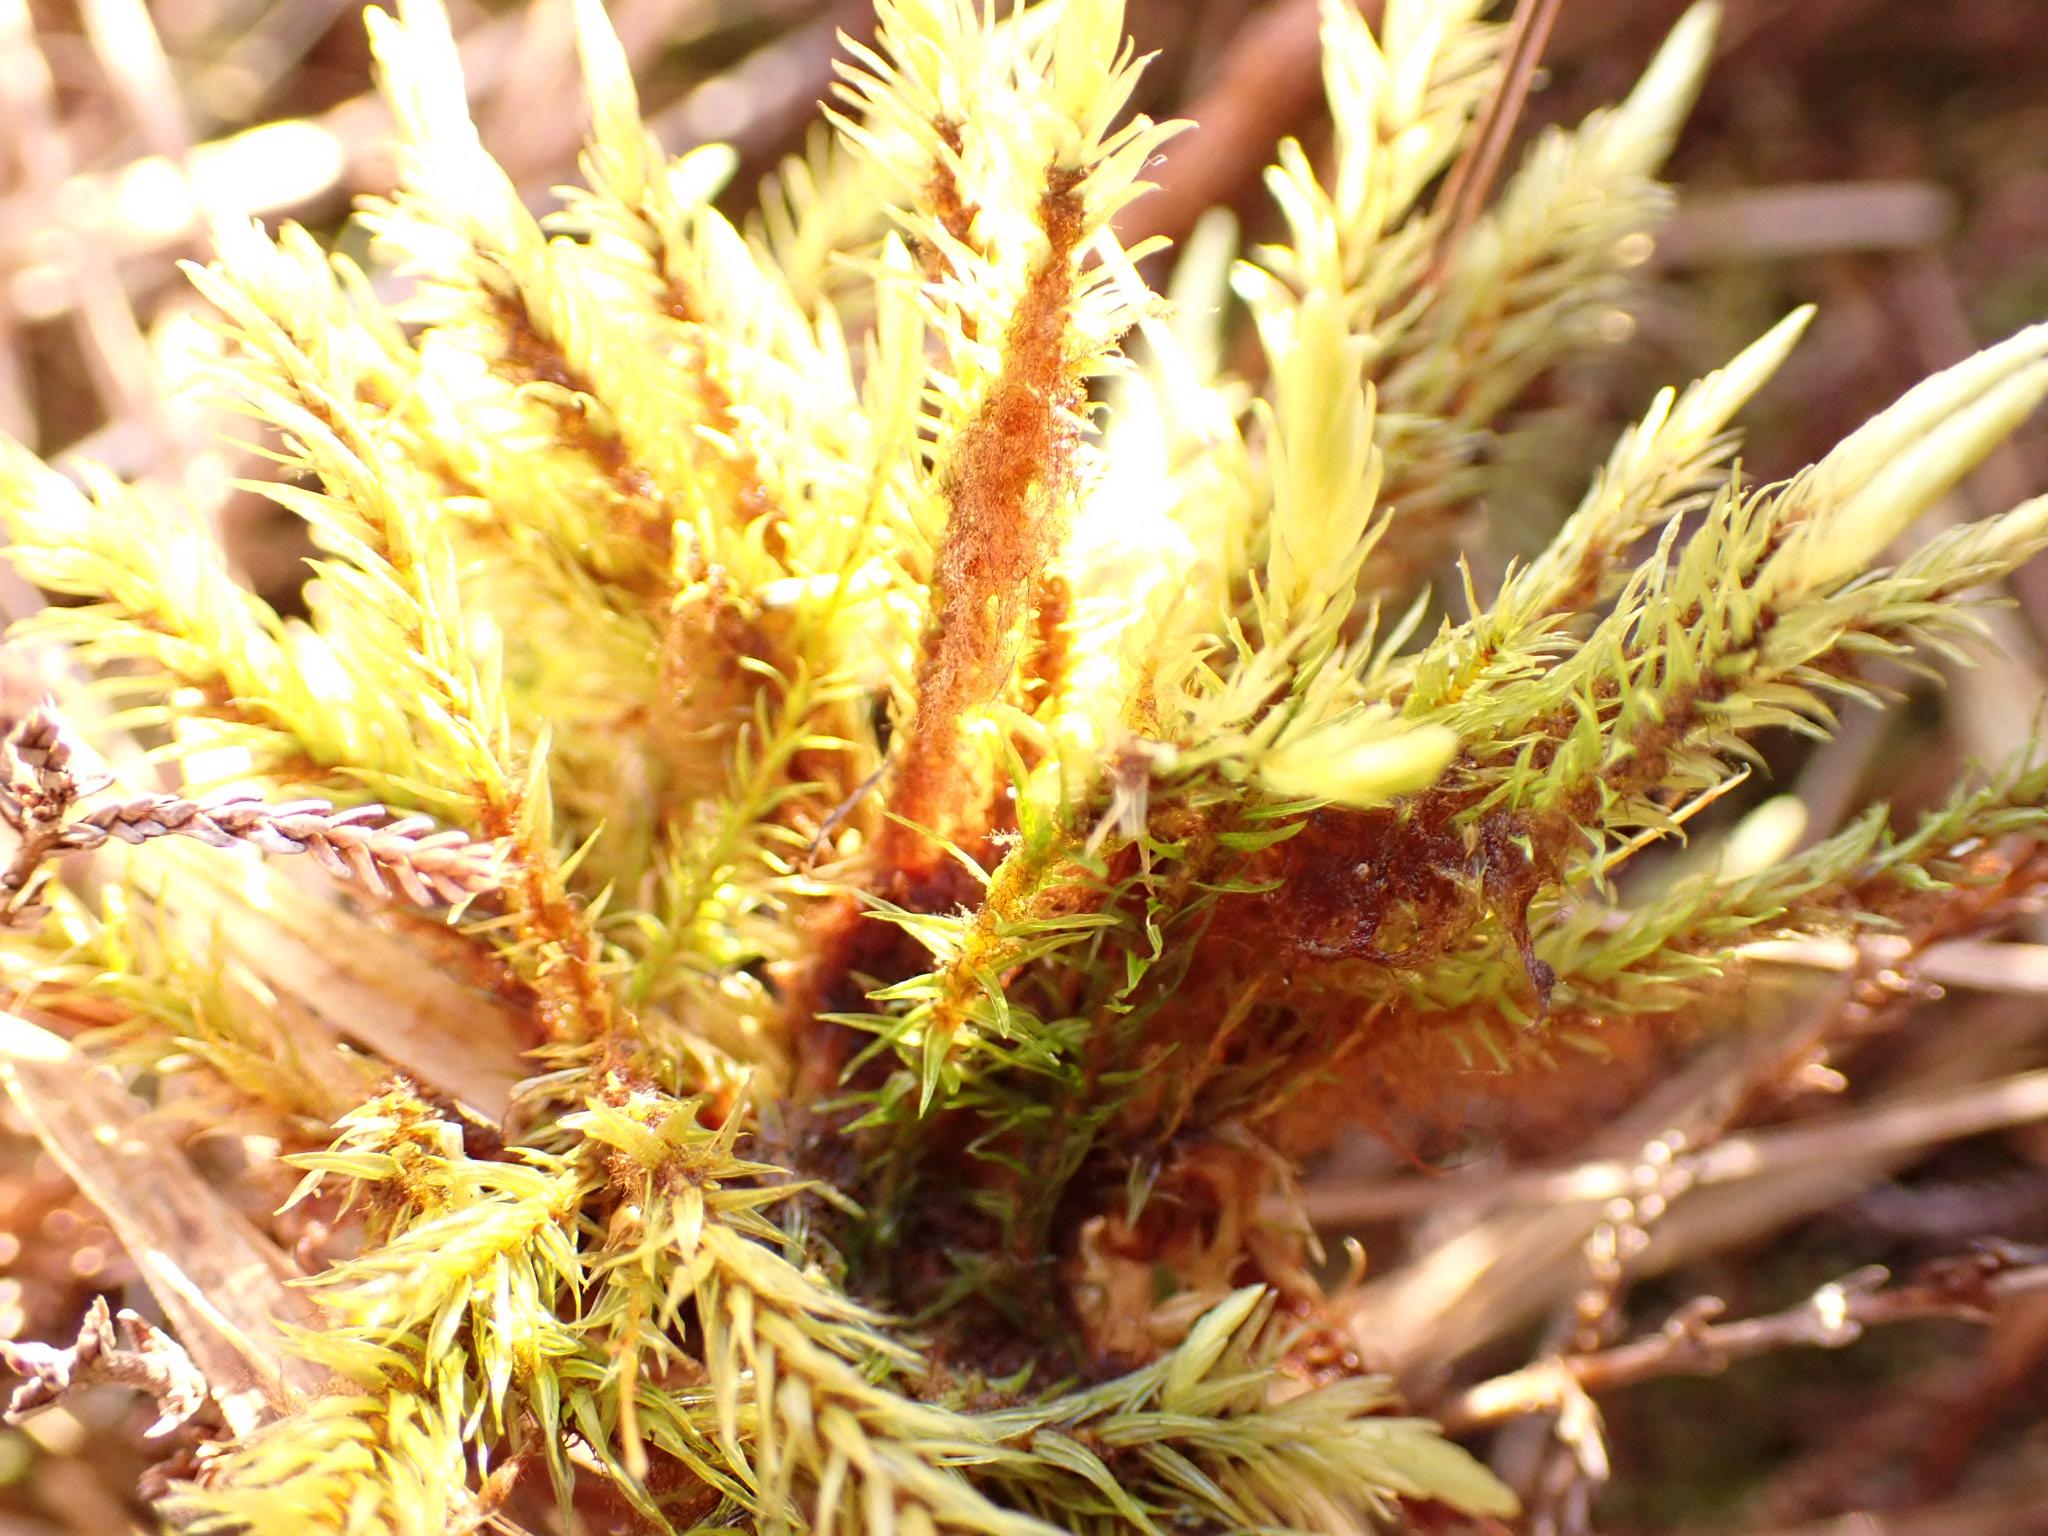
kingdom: Plantae
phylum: Bryophyta
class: Bryopsida
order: Aulacomniales
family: Aulacomniaceae
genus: Aulacomnium
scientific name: Aulacomnium palustre
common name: Almindelig filtmos
